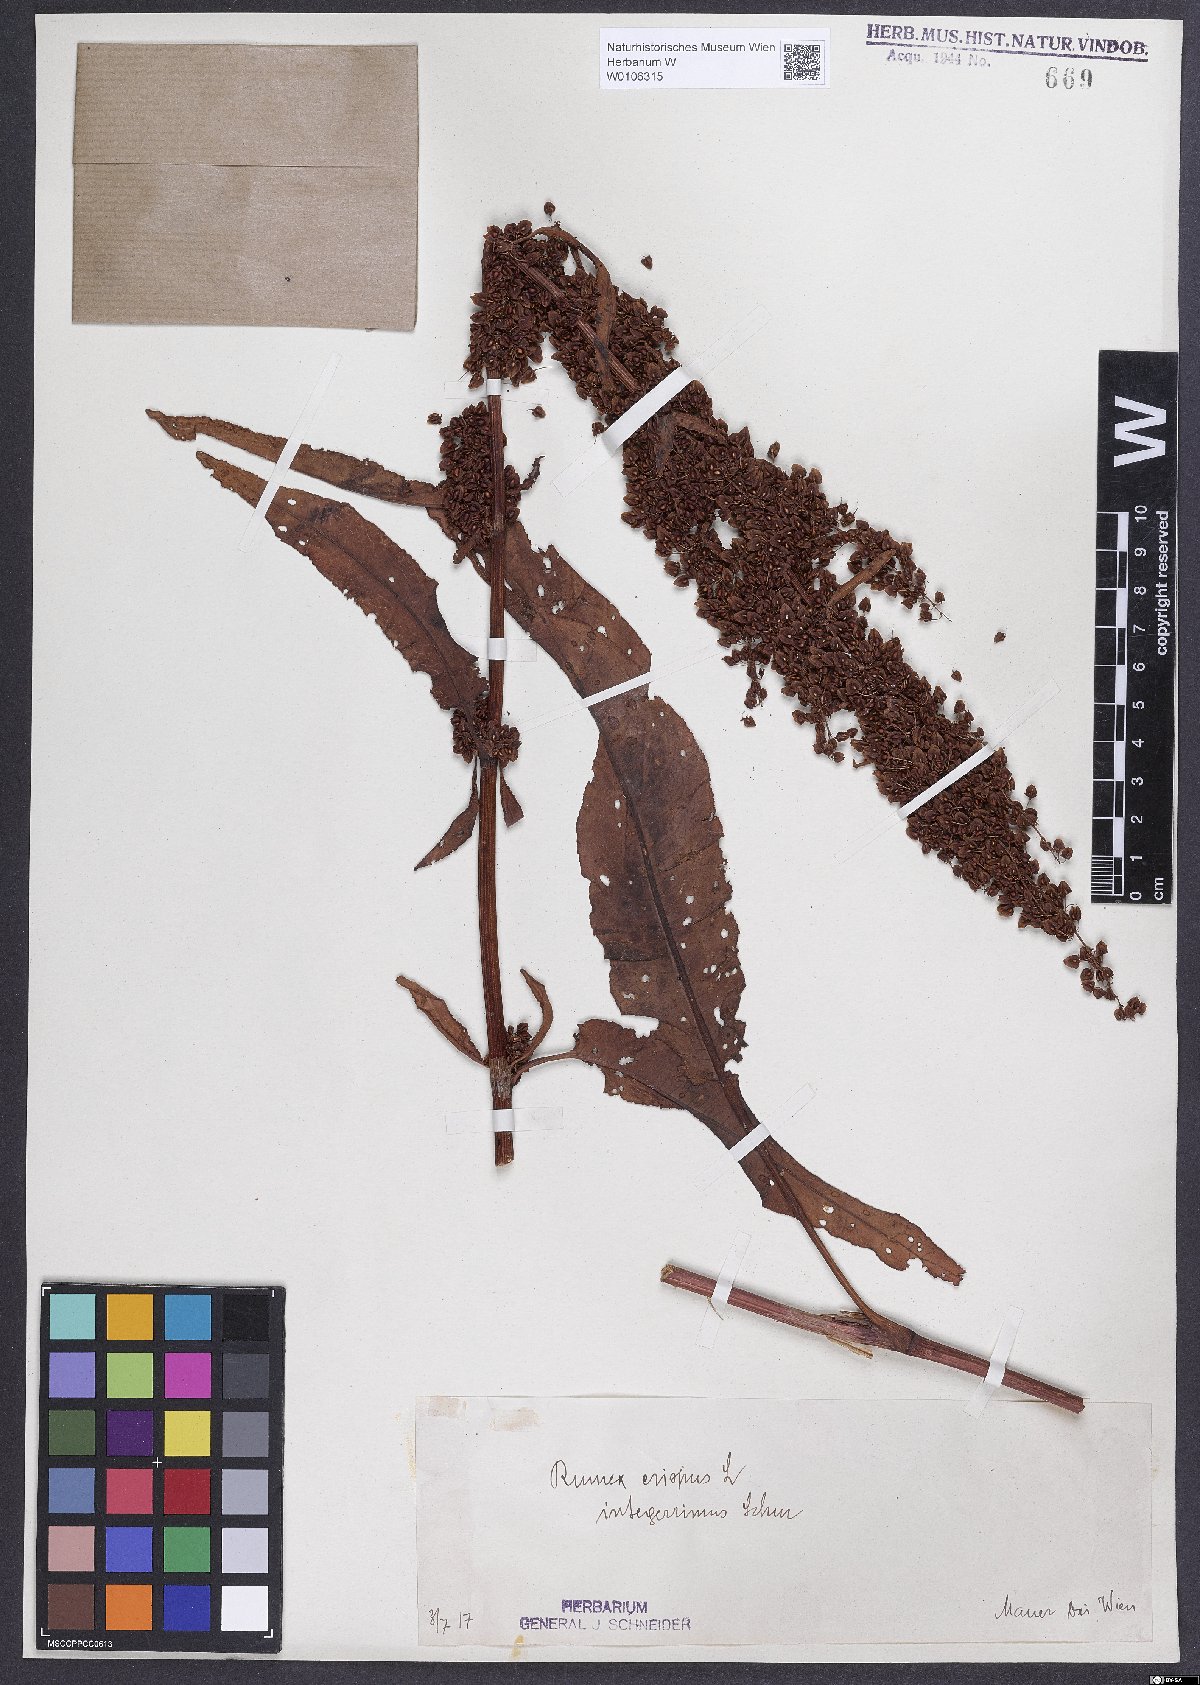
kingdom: Plantae
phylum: Tracheophyta
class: Magnoliopsida
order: Caryophyllales
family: Polygonaceae
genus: Rumex
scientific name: Rumex crispus
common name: Curled dock
